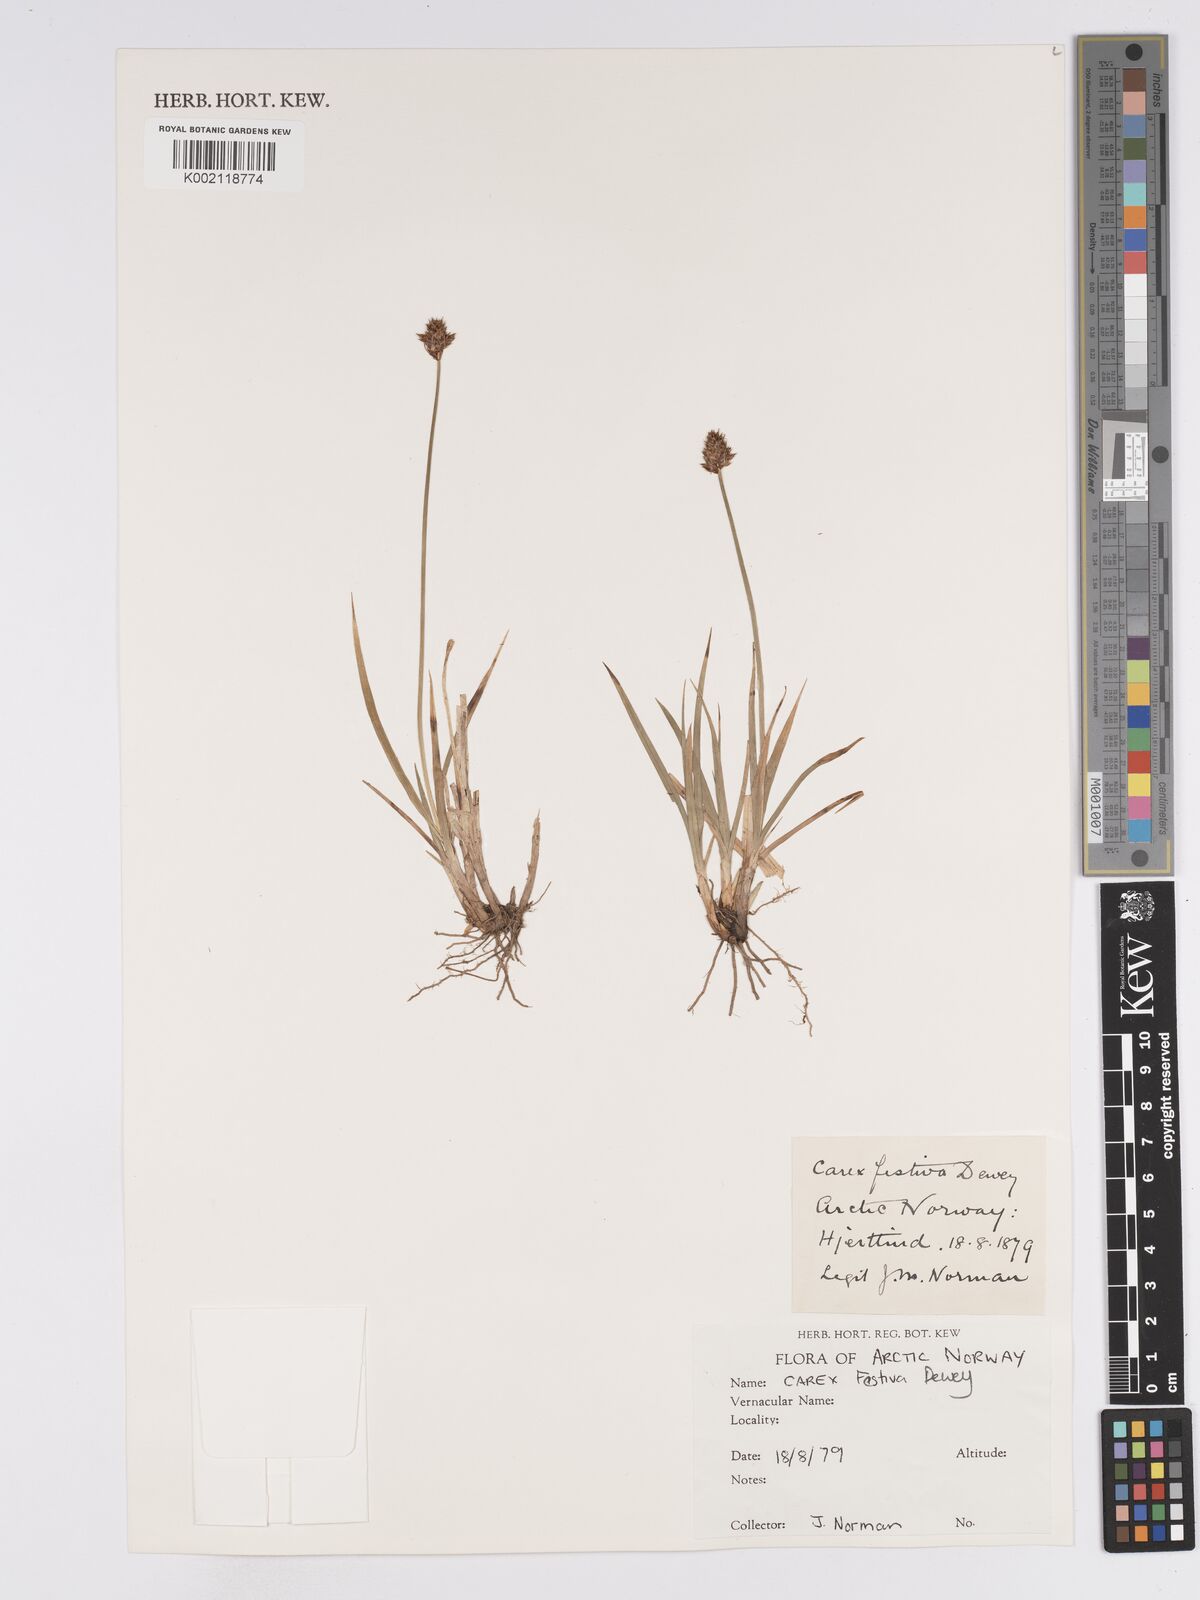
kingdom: Plantae
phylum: Tracheophyta
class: Liliopsida
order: Poales
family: Cyperaceae
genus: Carex
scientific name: Carex macloviana
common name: Falkland island sedge
